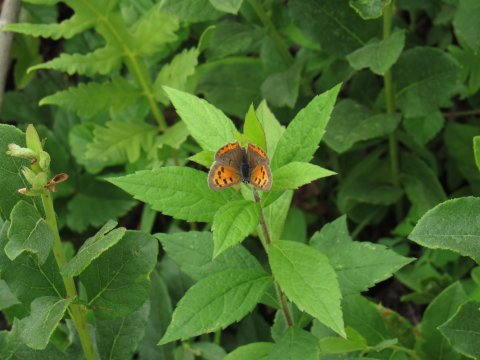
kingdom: Animalia
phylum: Arthropoda
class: Insecta
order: Lepidoptera
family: Lycaenidae
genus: Lycaena
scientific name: Lycaena phlaeas
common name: American Copper
